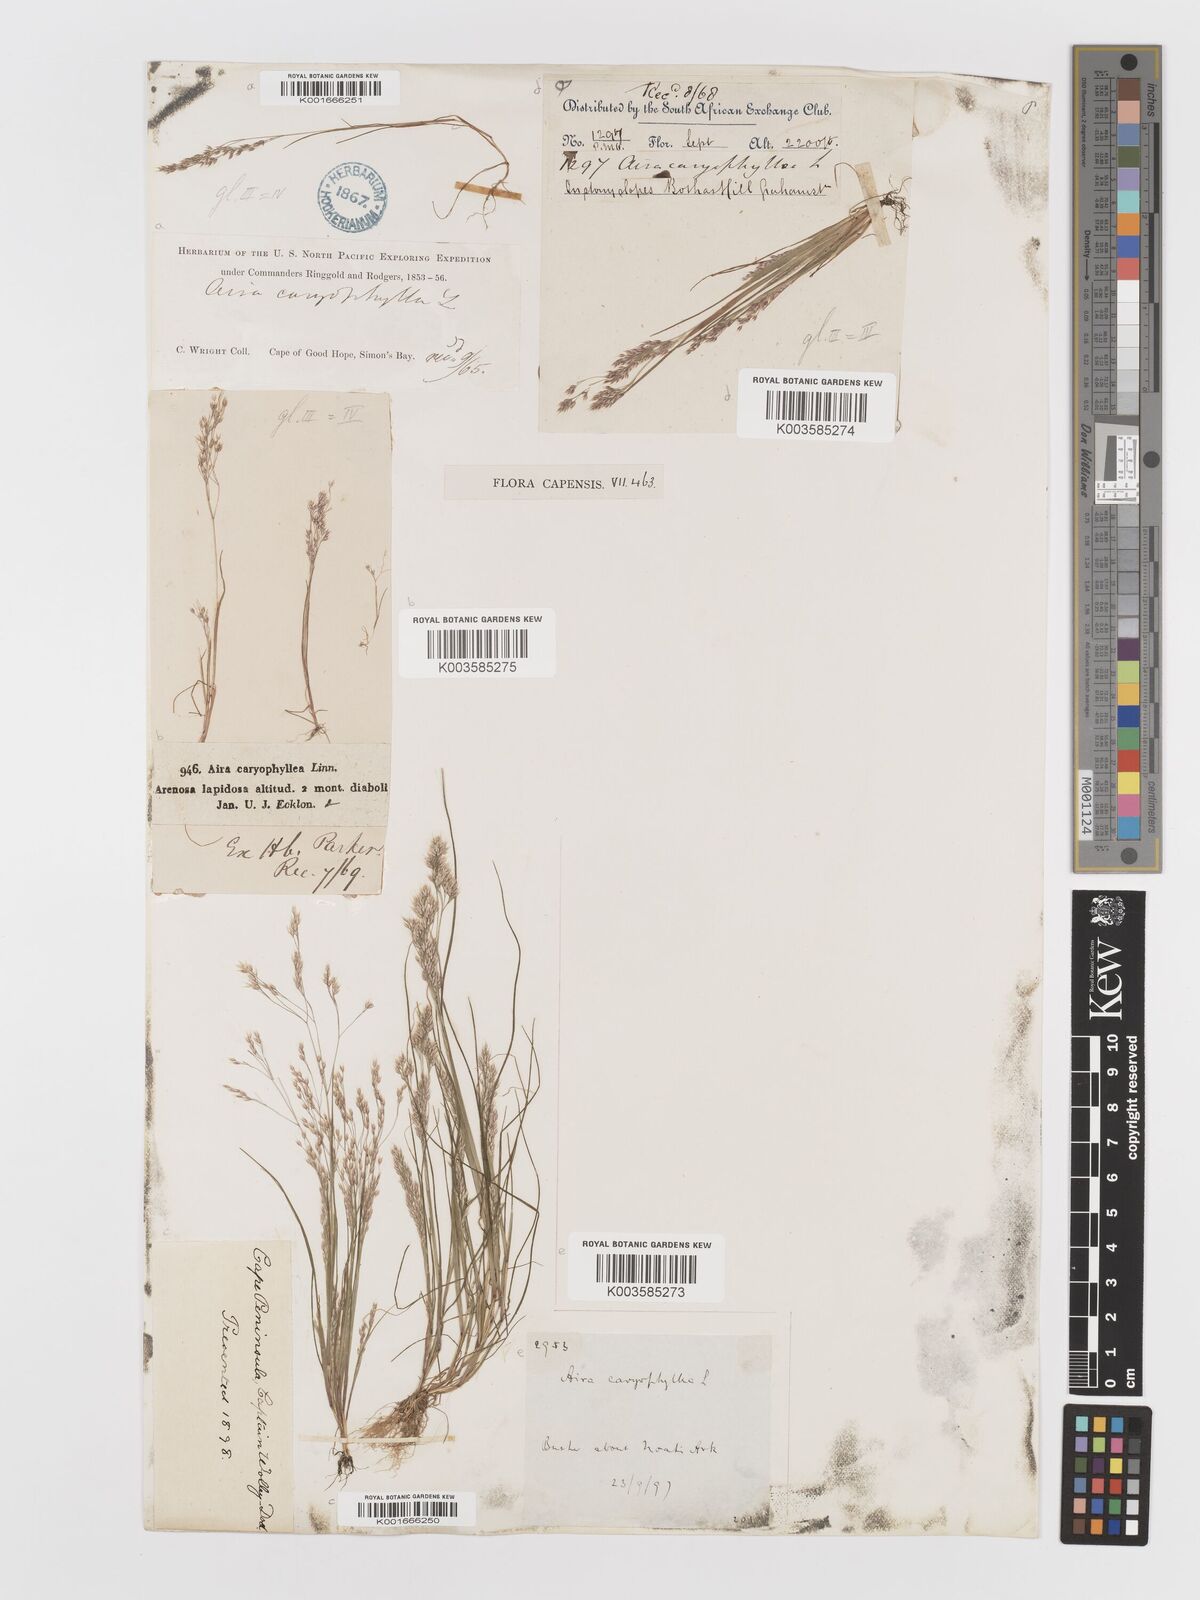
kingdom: Plantae
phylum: Tracheophyta
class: Liliopsida
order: Poales
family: Poaceae
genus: Aira
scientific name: Aira cupaniana
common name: Silver hairgrass
